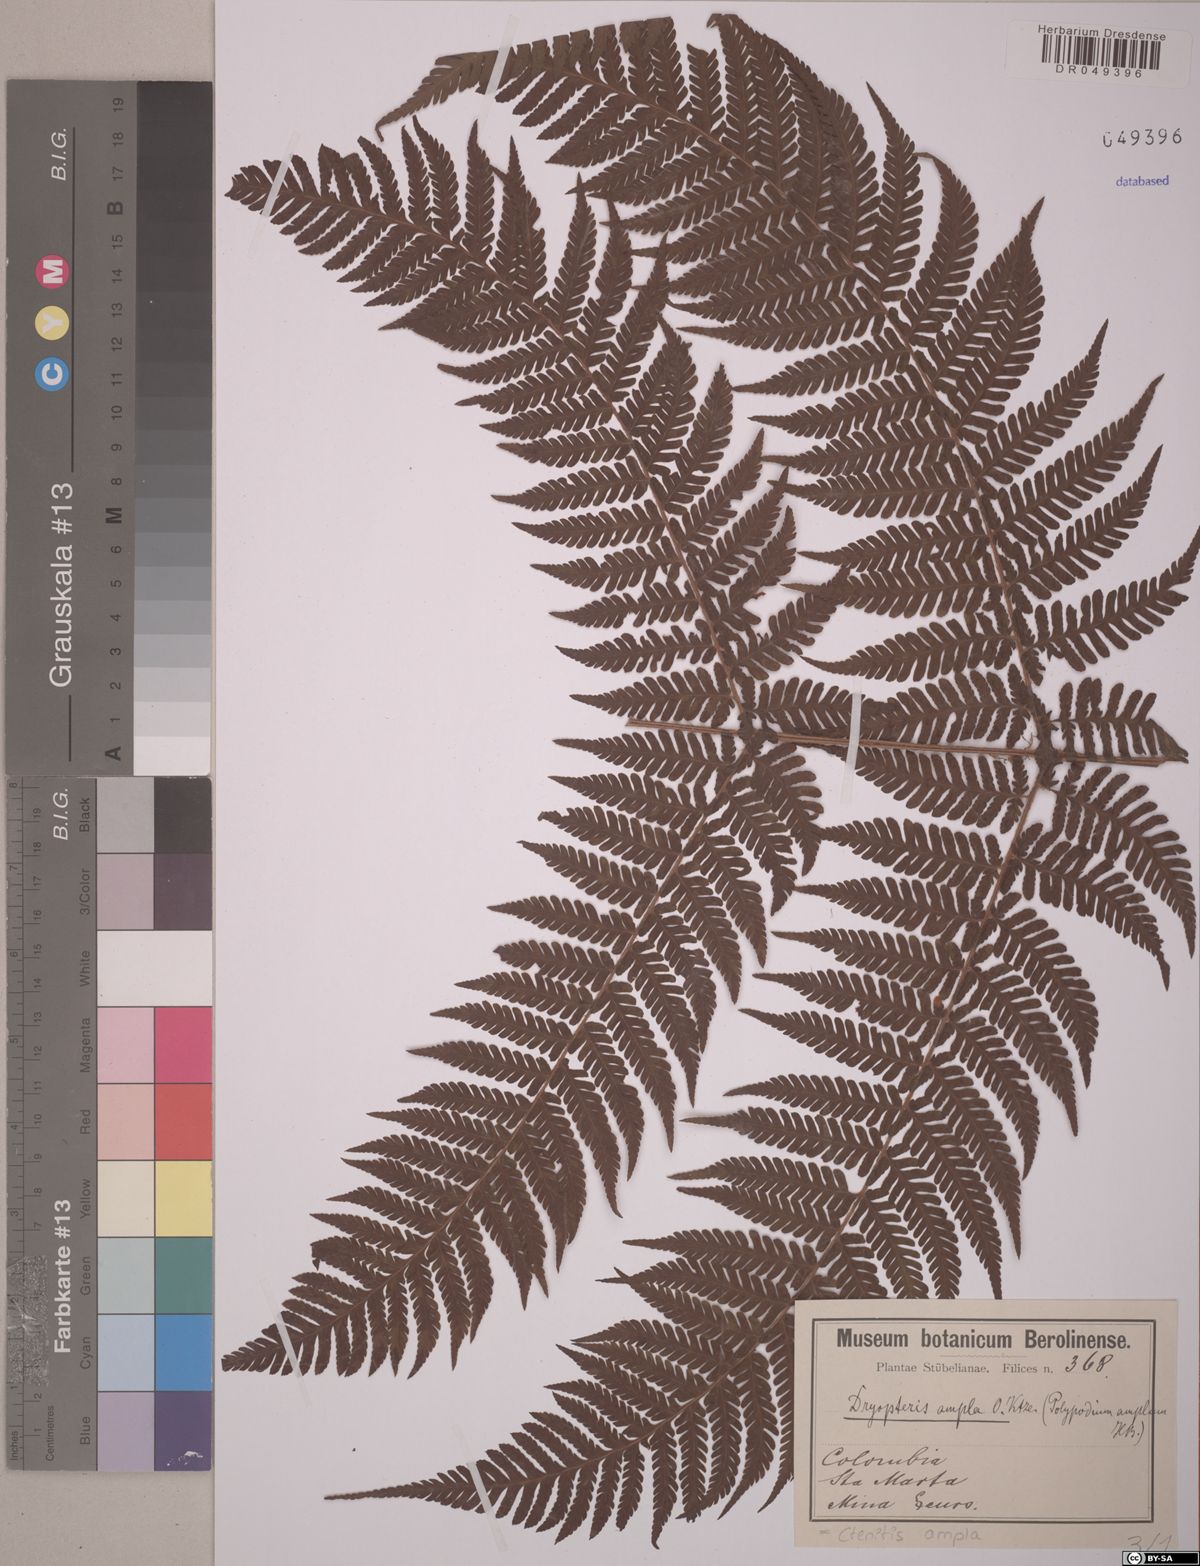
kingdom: Plantae
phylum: Tracheophyta
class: Polypodiopsida
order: Polypodiales
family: Dryopteridaceae
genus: Ctenitis
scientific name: Ctenitis sloanei
